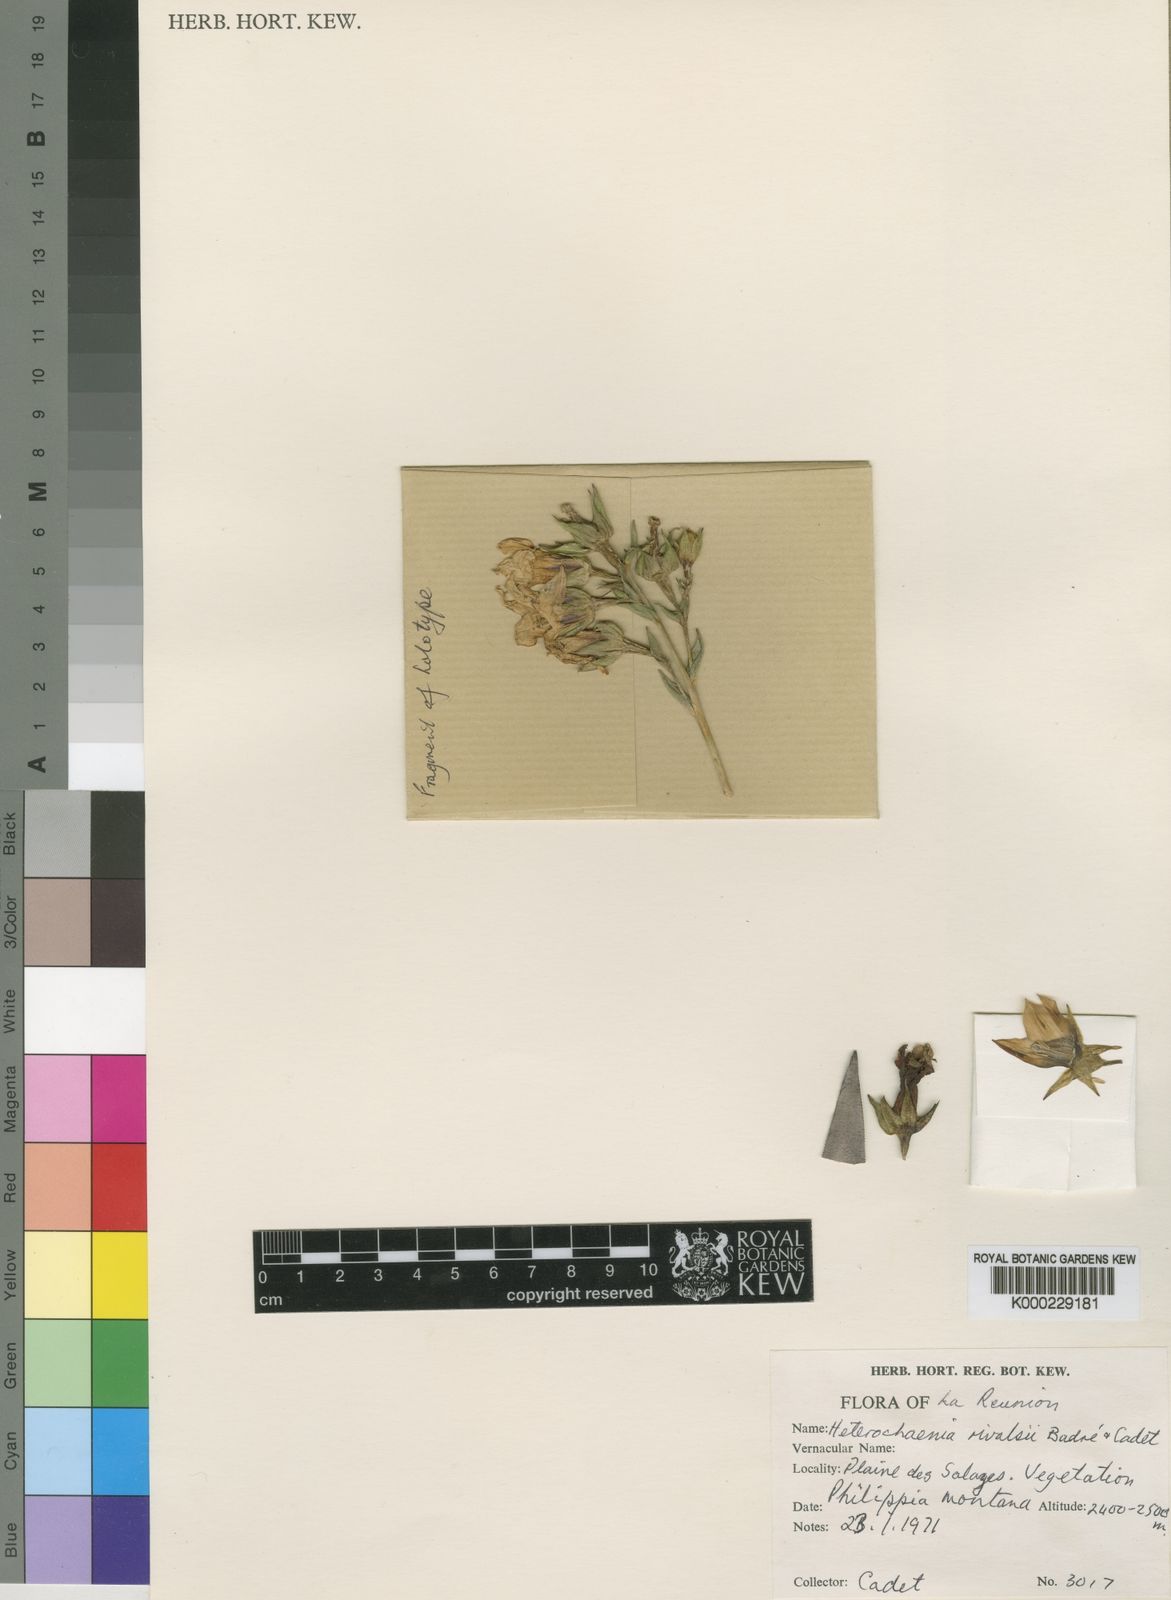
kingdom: Plantae
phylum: Tracheophyta
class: Magnoliopsida
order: Asterales
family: Campanulaceae
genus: Heterochaenia
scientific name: Heterochaenia rivalsii
